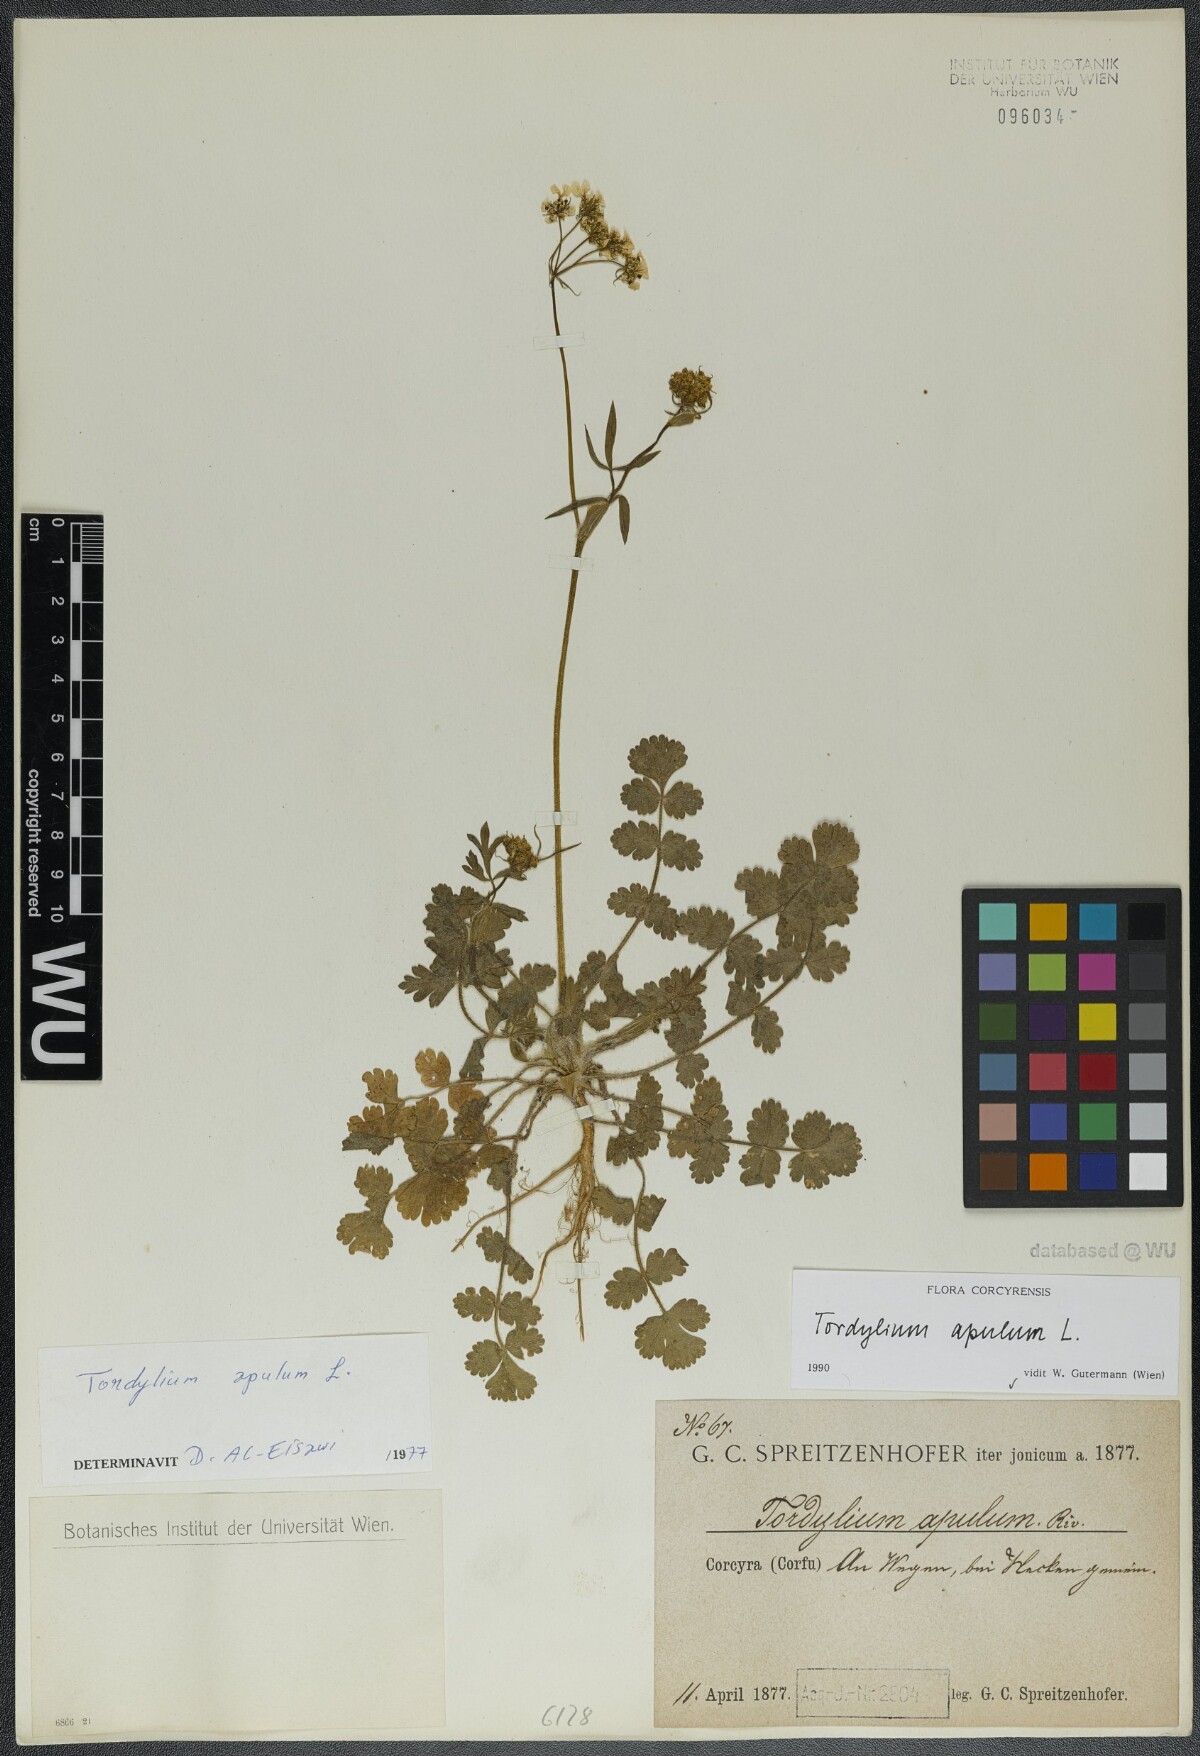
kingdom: Plantae
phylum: Tracheophyta
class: Magnoliopsida
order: Apiales
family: Apiaceae
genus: Tordylium
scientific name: Tordylium apulum
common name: Mediterranean hartwort
